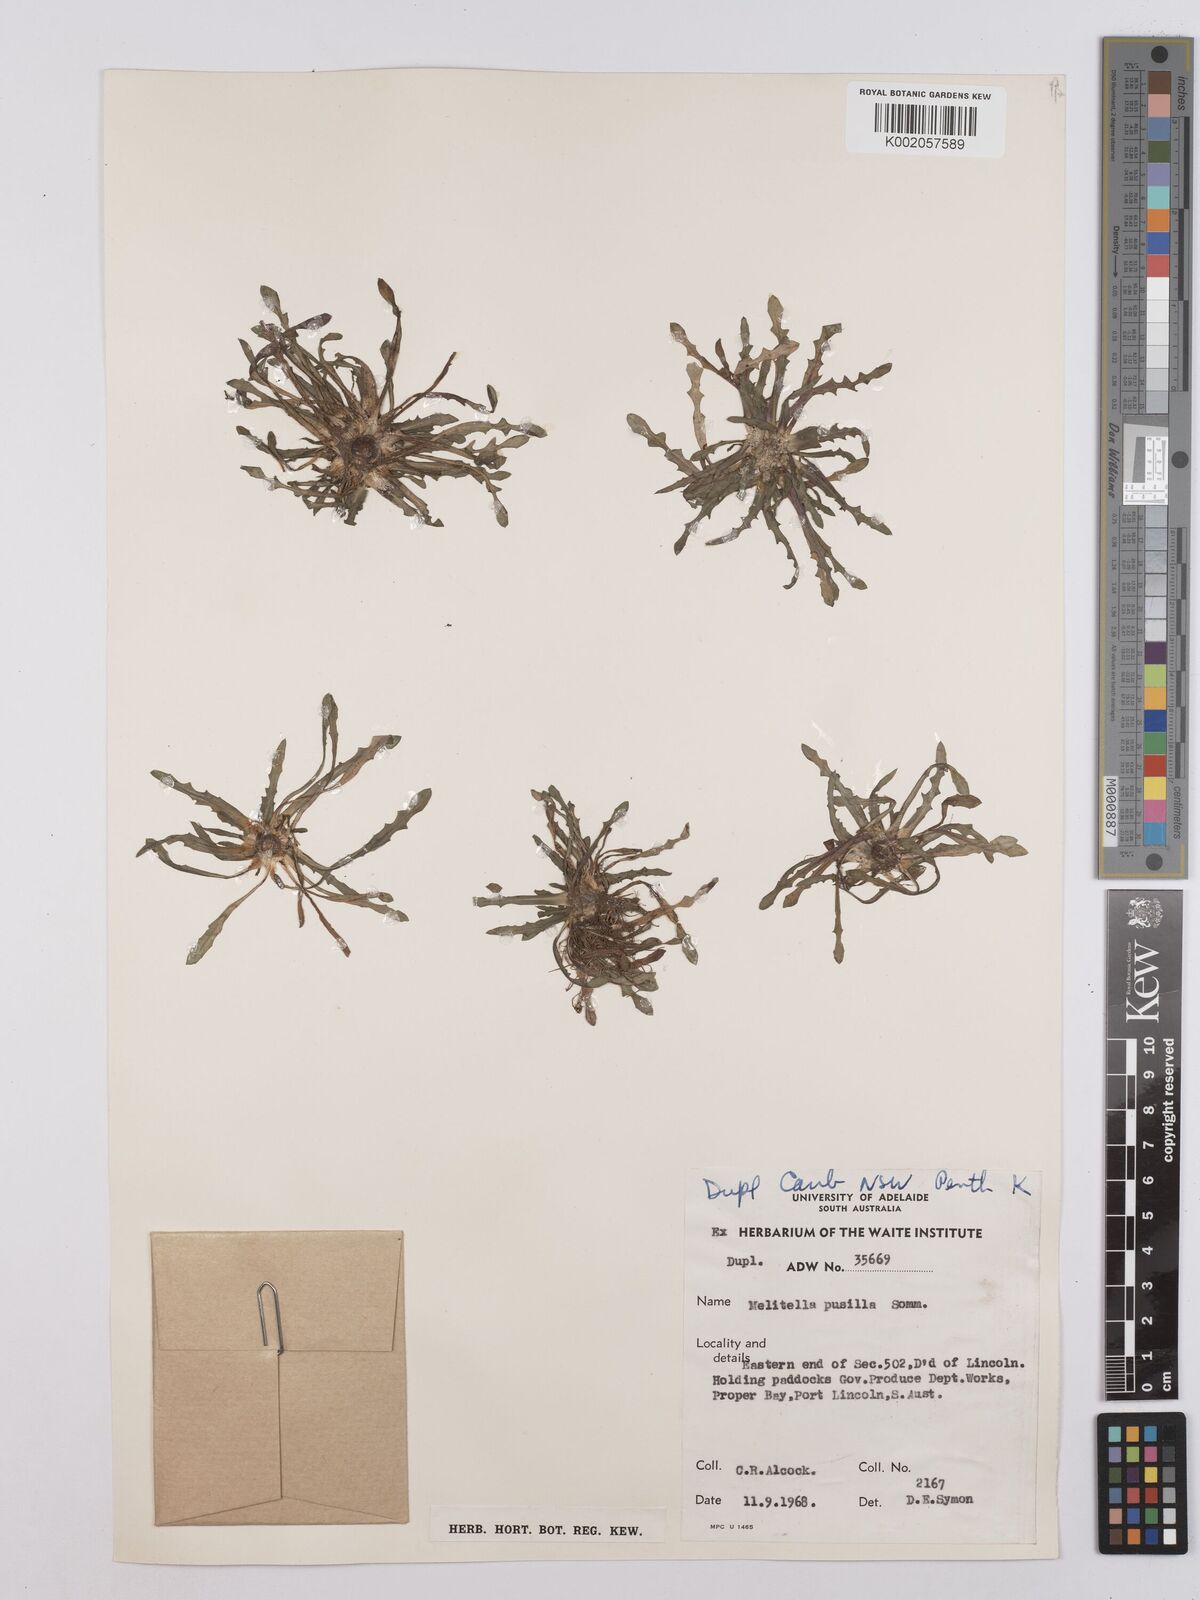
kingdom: Plantae
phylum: Tracheophyta
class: Magnoliopsida
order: Asterales
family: Asteraceae
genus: Crepis
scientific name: Crepis pusilla
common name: Dandelion crepis
